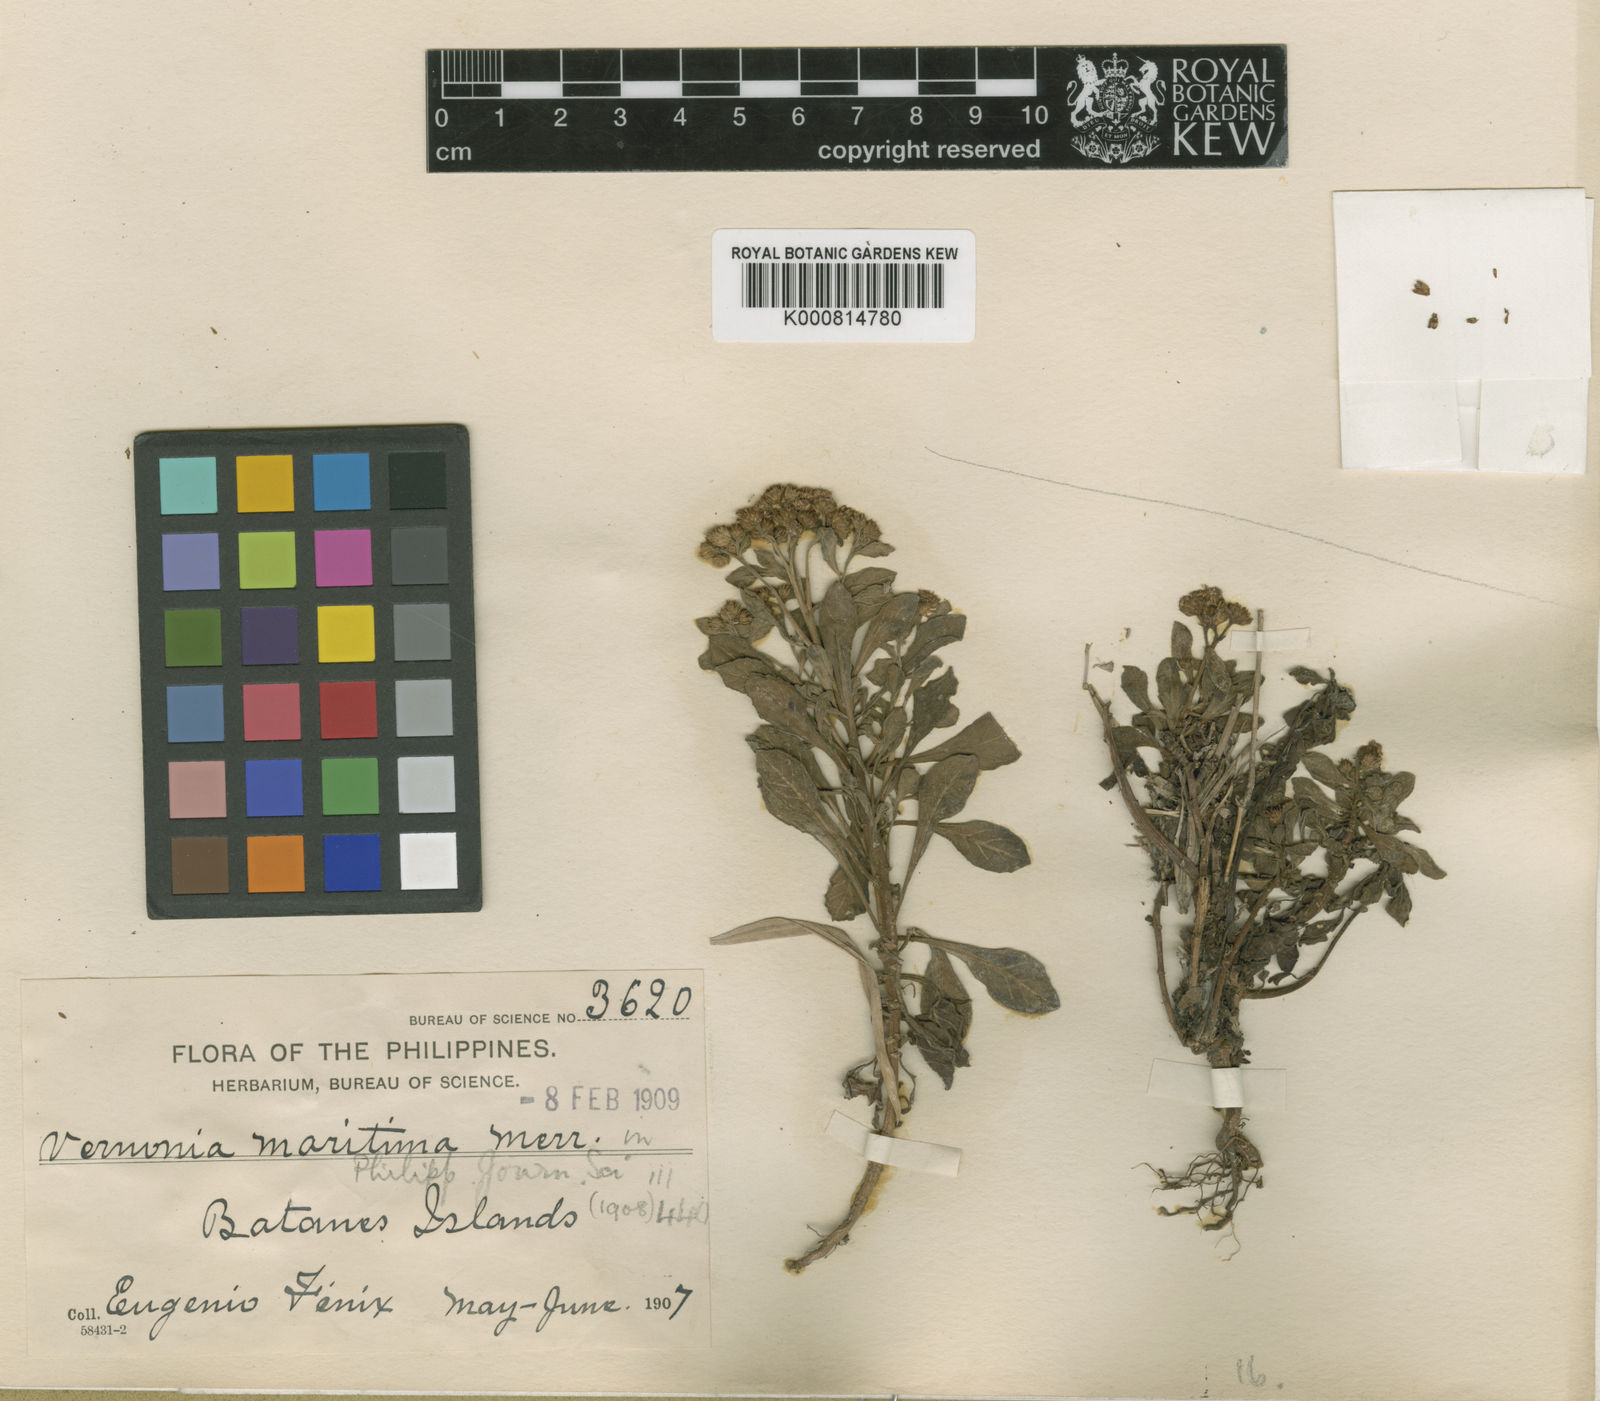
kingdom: Plantae
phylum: Tracheophyta
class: Magnoliopsida
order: Asterales
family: Asteraceae
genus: Cyanthillium
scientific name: Cyanthillium maritimum
